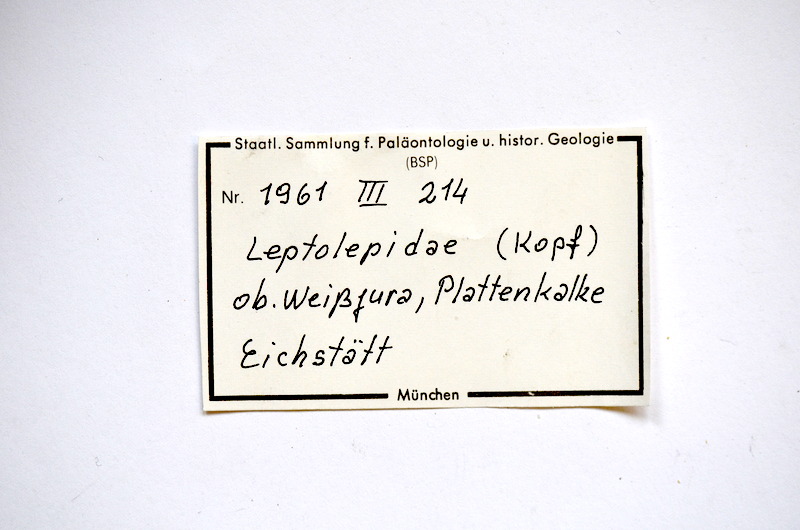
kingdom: Animalia
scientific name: Animalia
